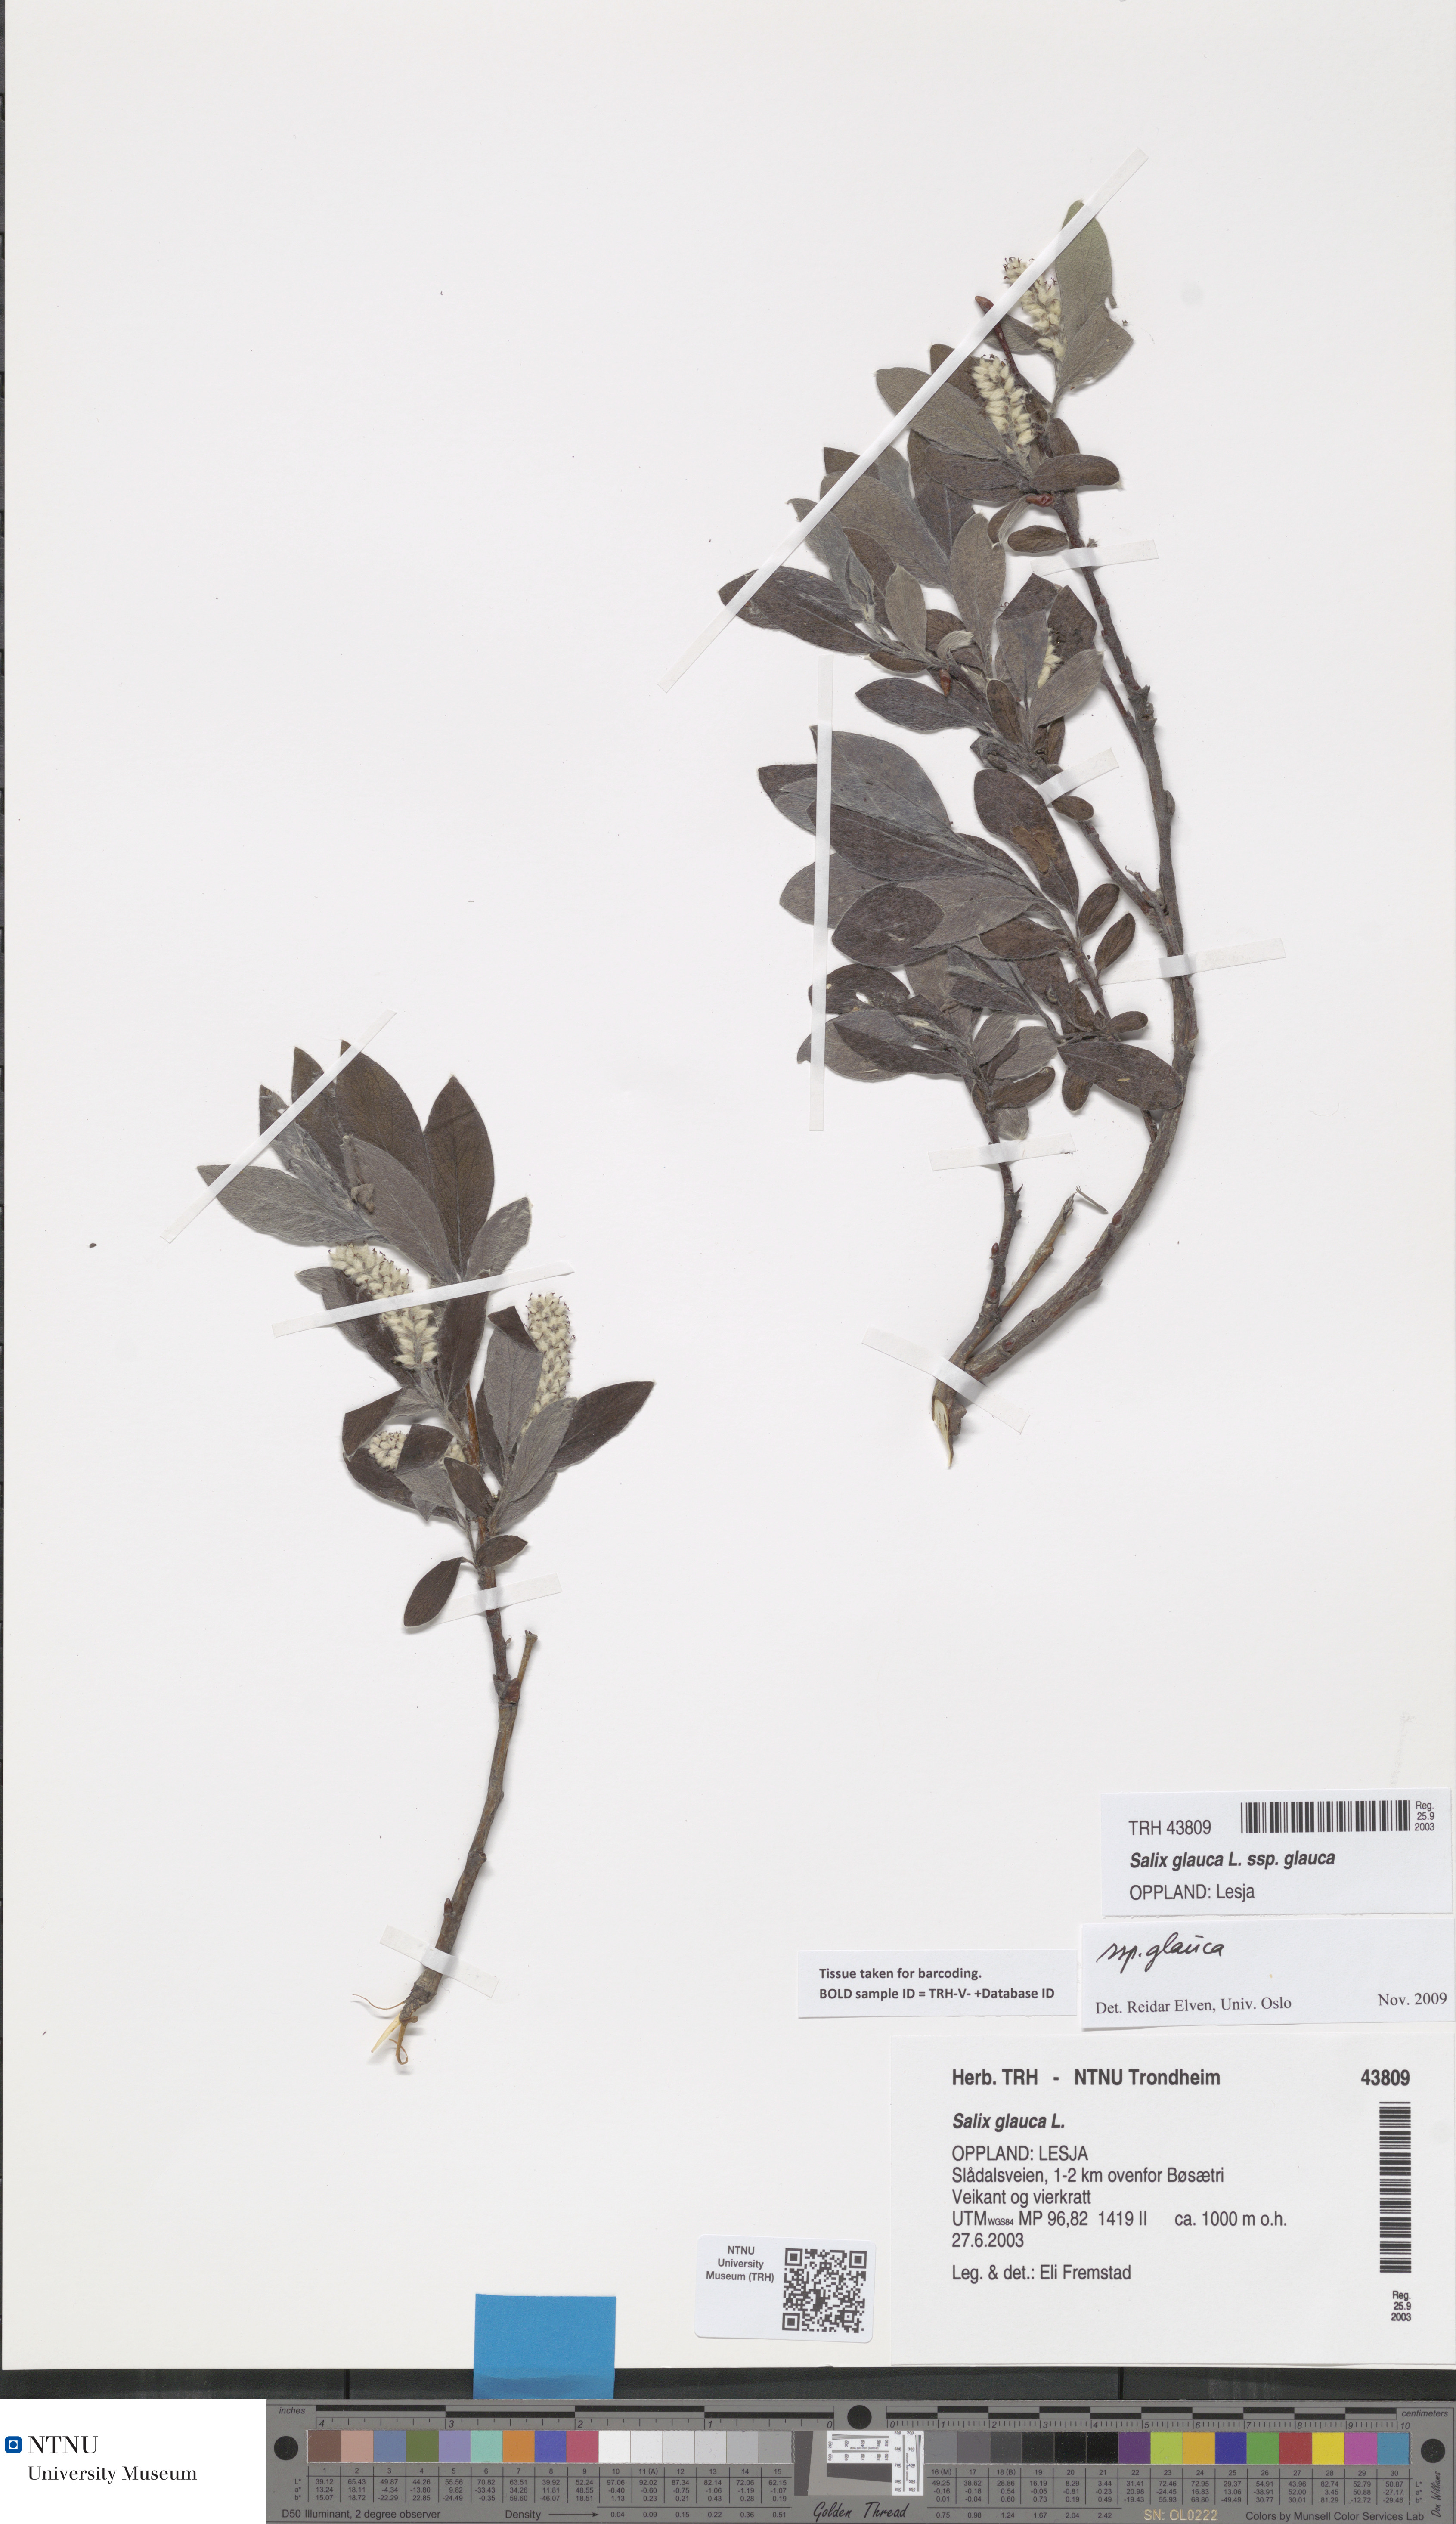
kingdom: Plantae
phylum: Tracheophyta
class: Magnoliopsida
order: Malpighiales
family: Salicaceae
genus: Salix
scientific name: Salix glauca
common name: Glaucous willow
